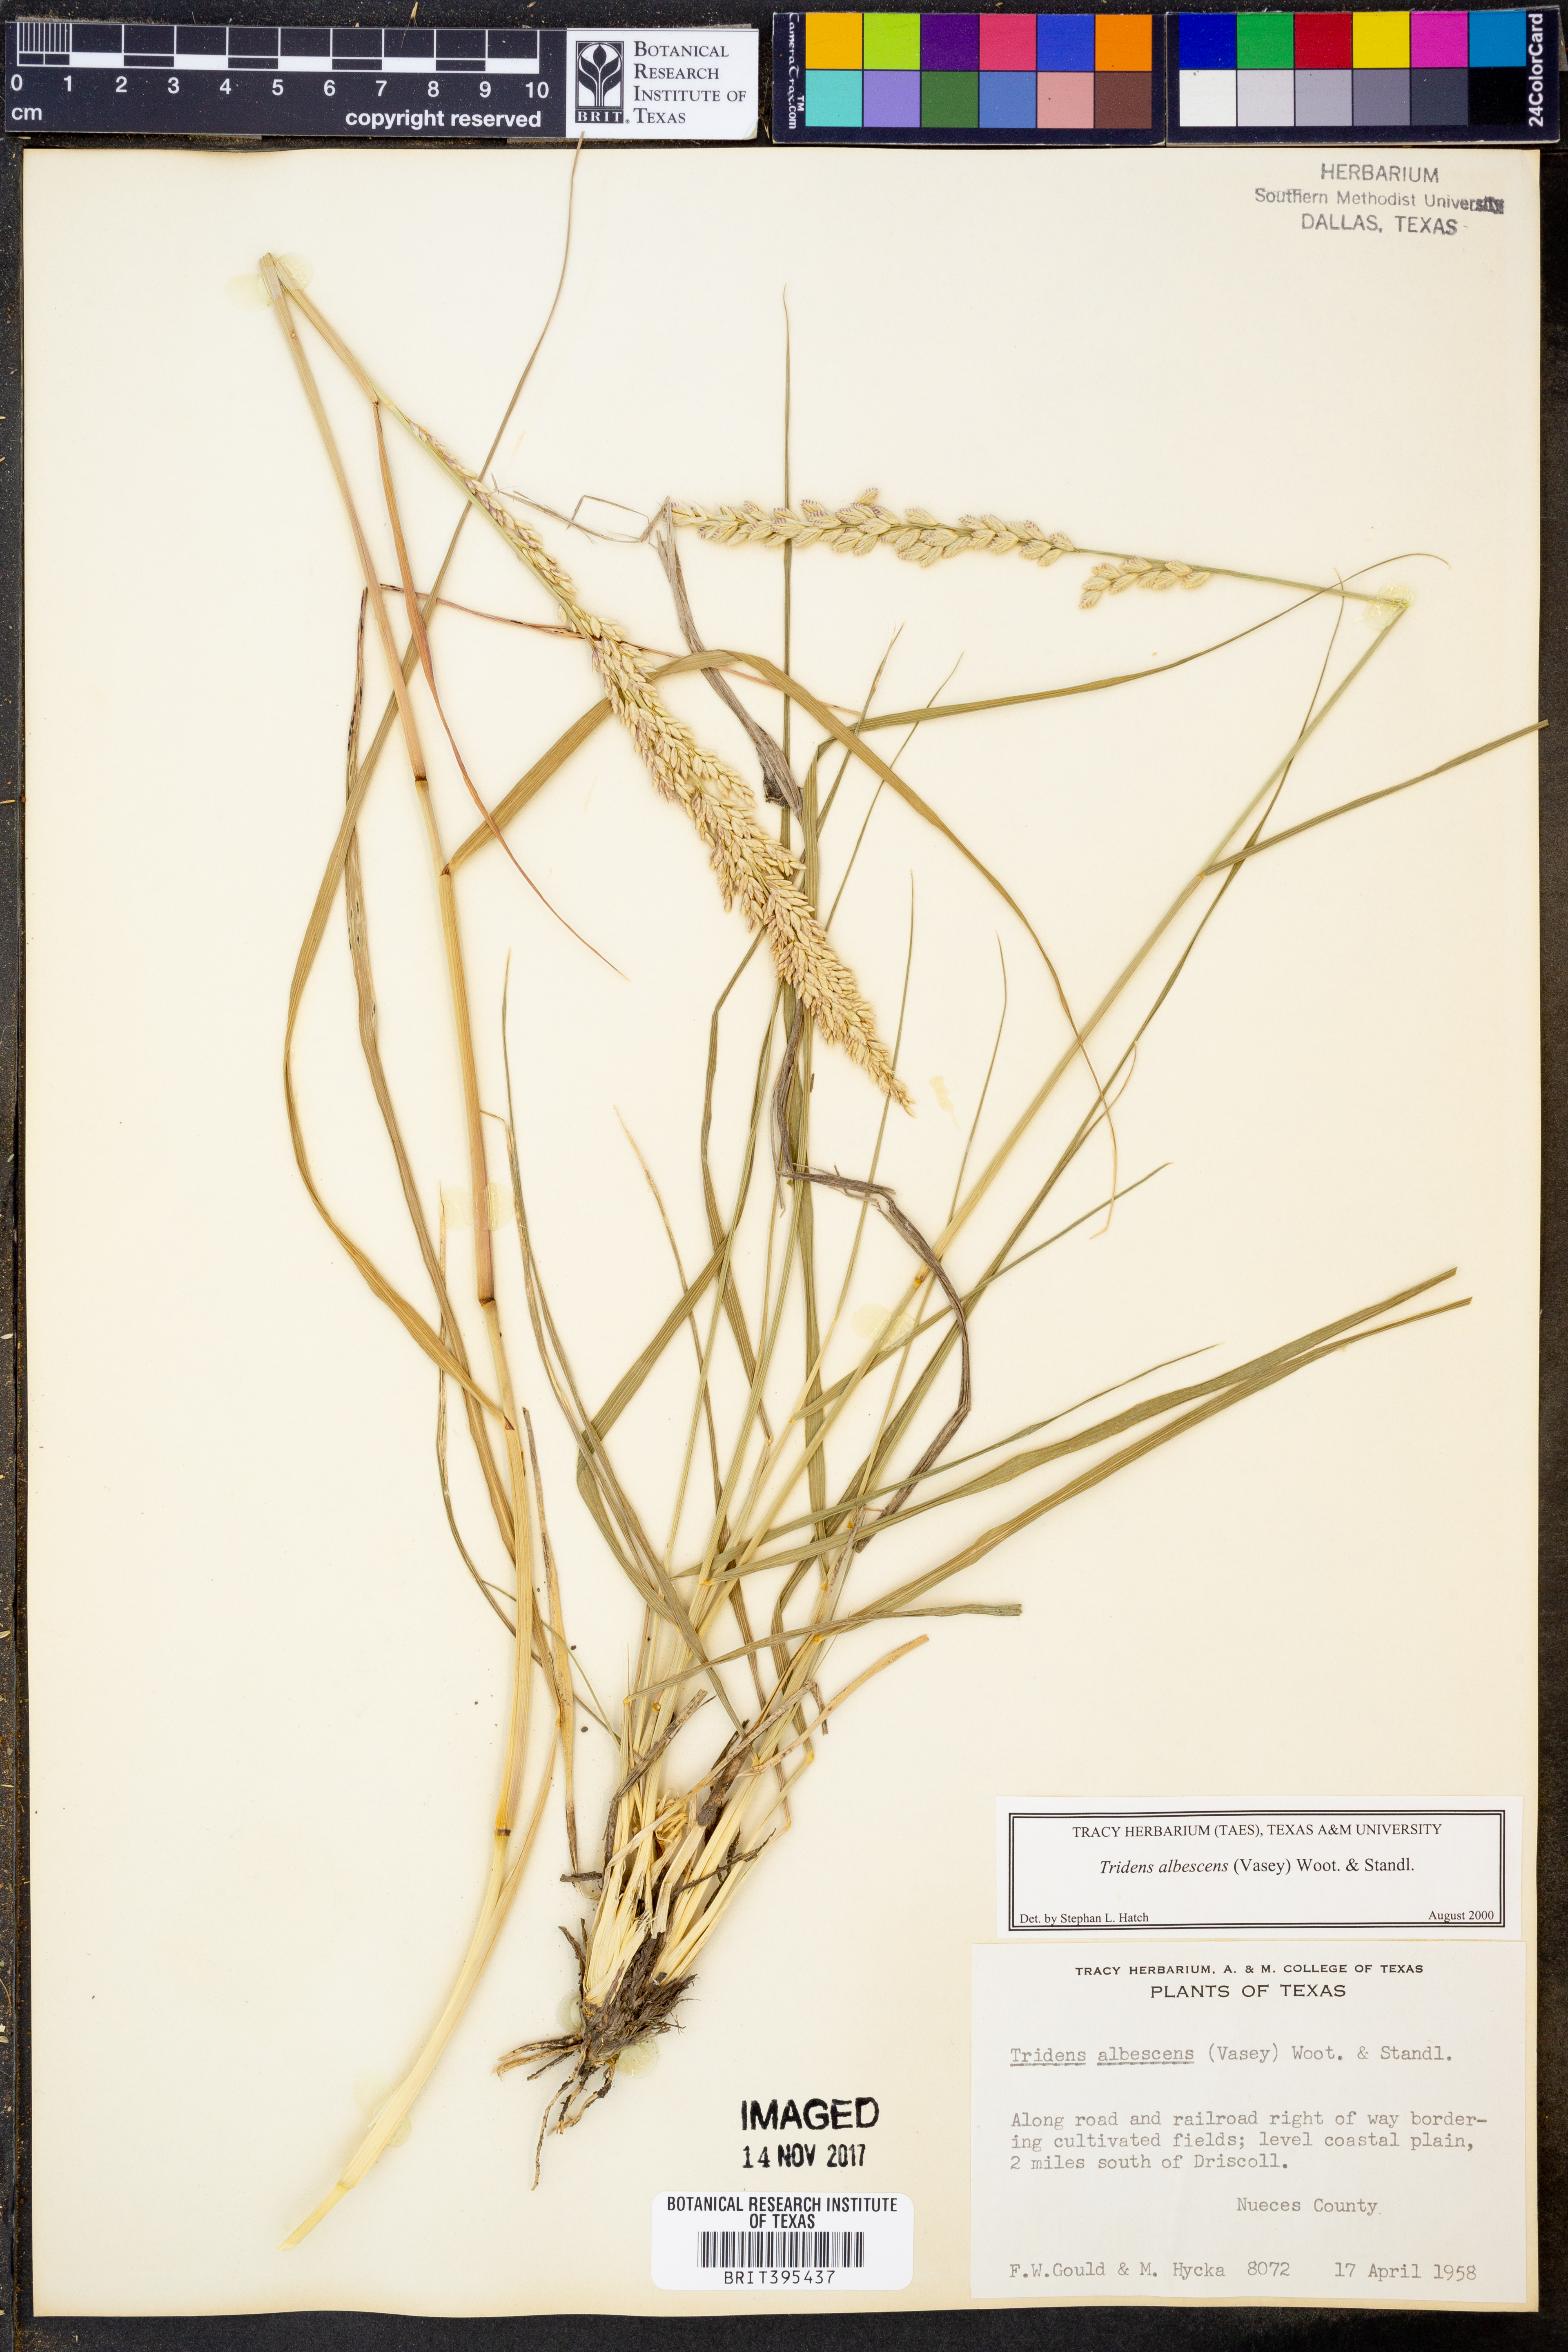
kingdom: Plantae
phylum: Tracheophyta
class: Liliopsida
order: Poales
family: Poaceae
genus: Tridens
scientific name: Tridens albescens
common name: White tridens
